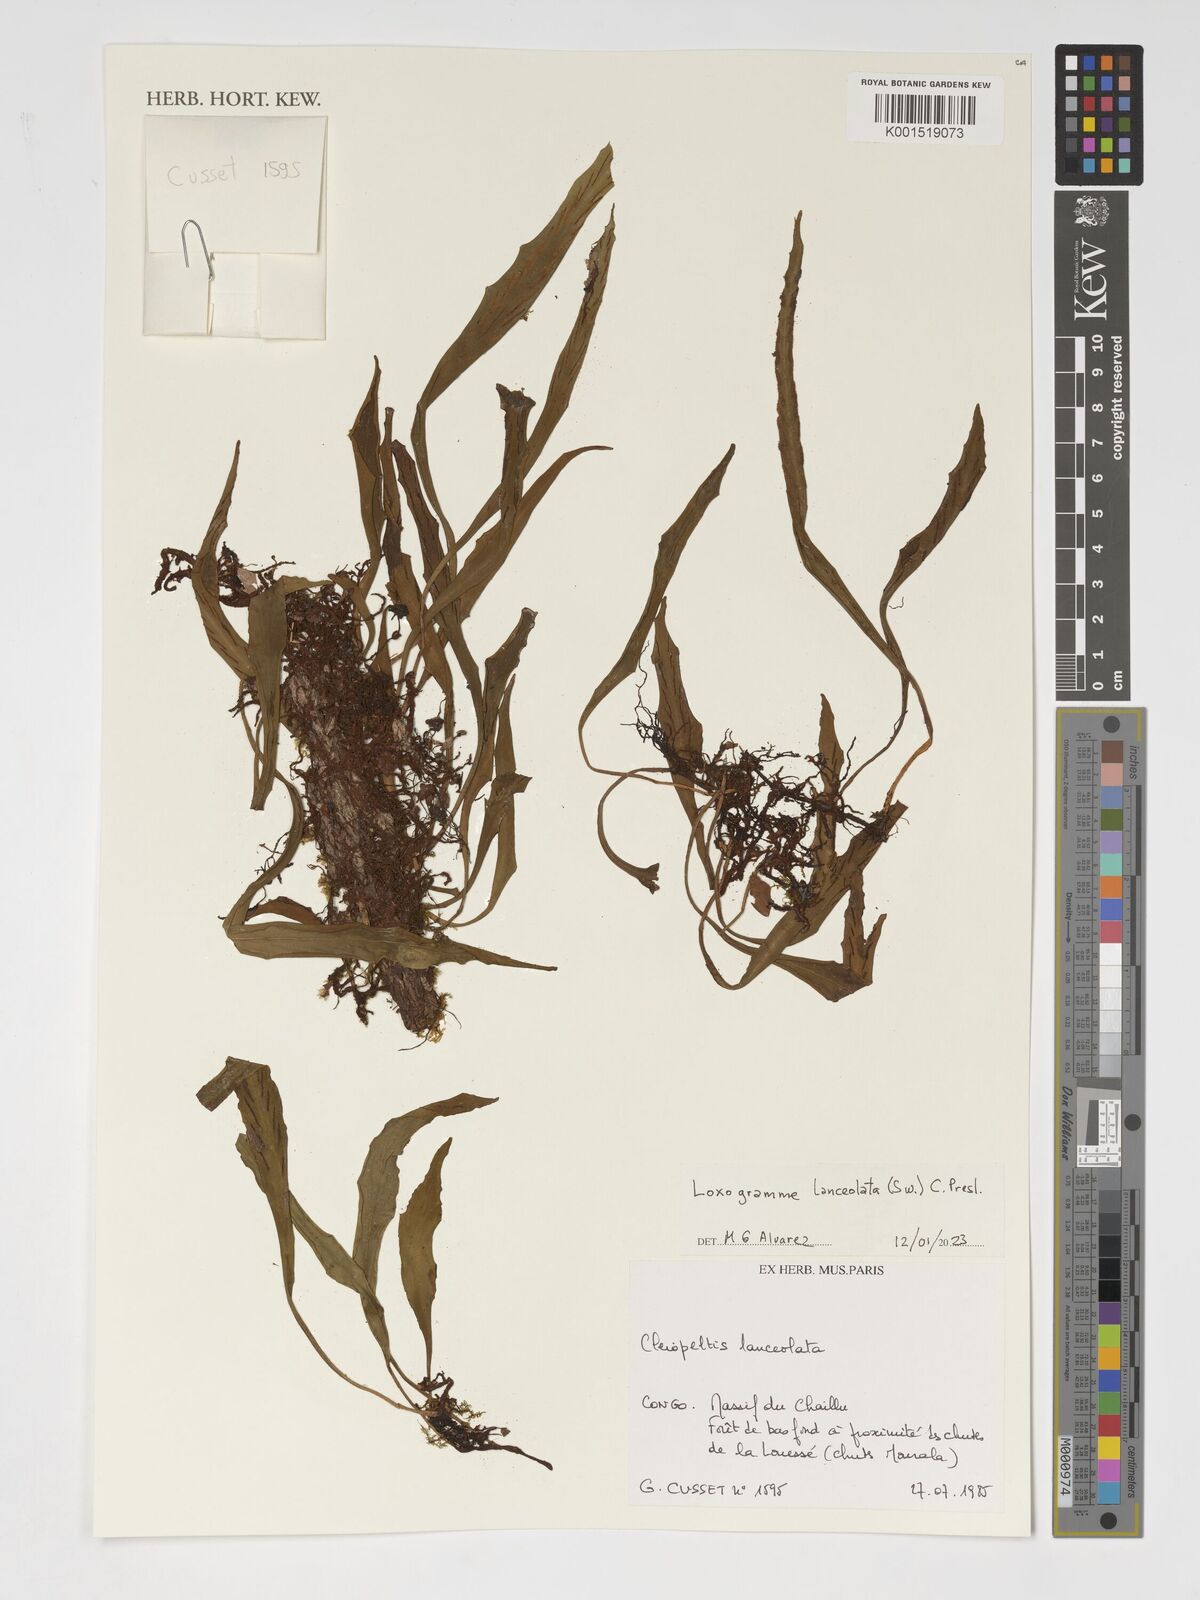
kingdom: Plantae
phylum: Tracheophyta
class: Polypodiopsida
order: Polypodiales
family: Polypodiaceae
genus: Loxogramme
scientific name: Loxogramme lanceolata
